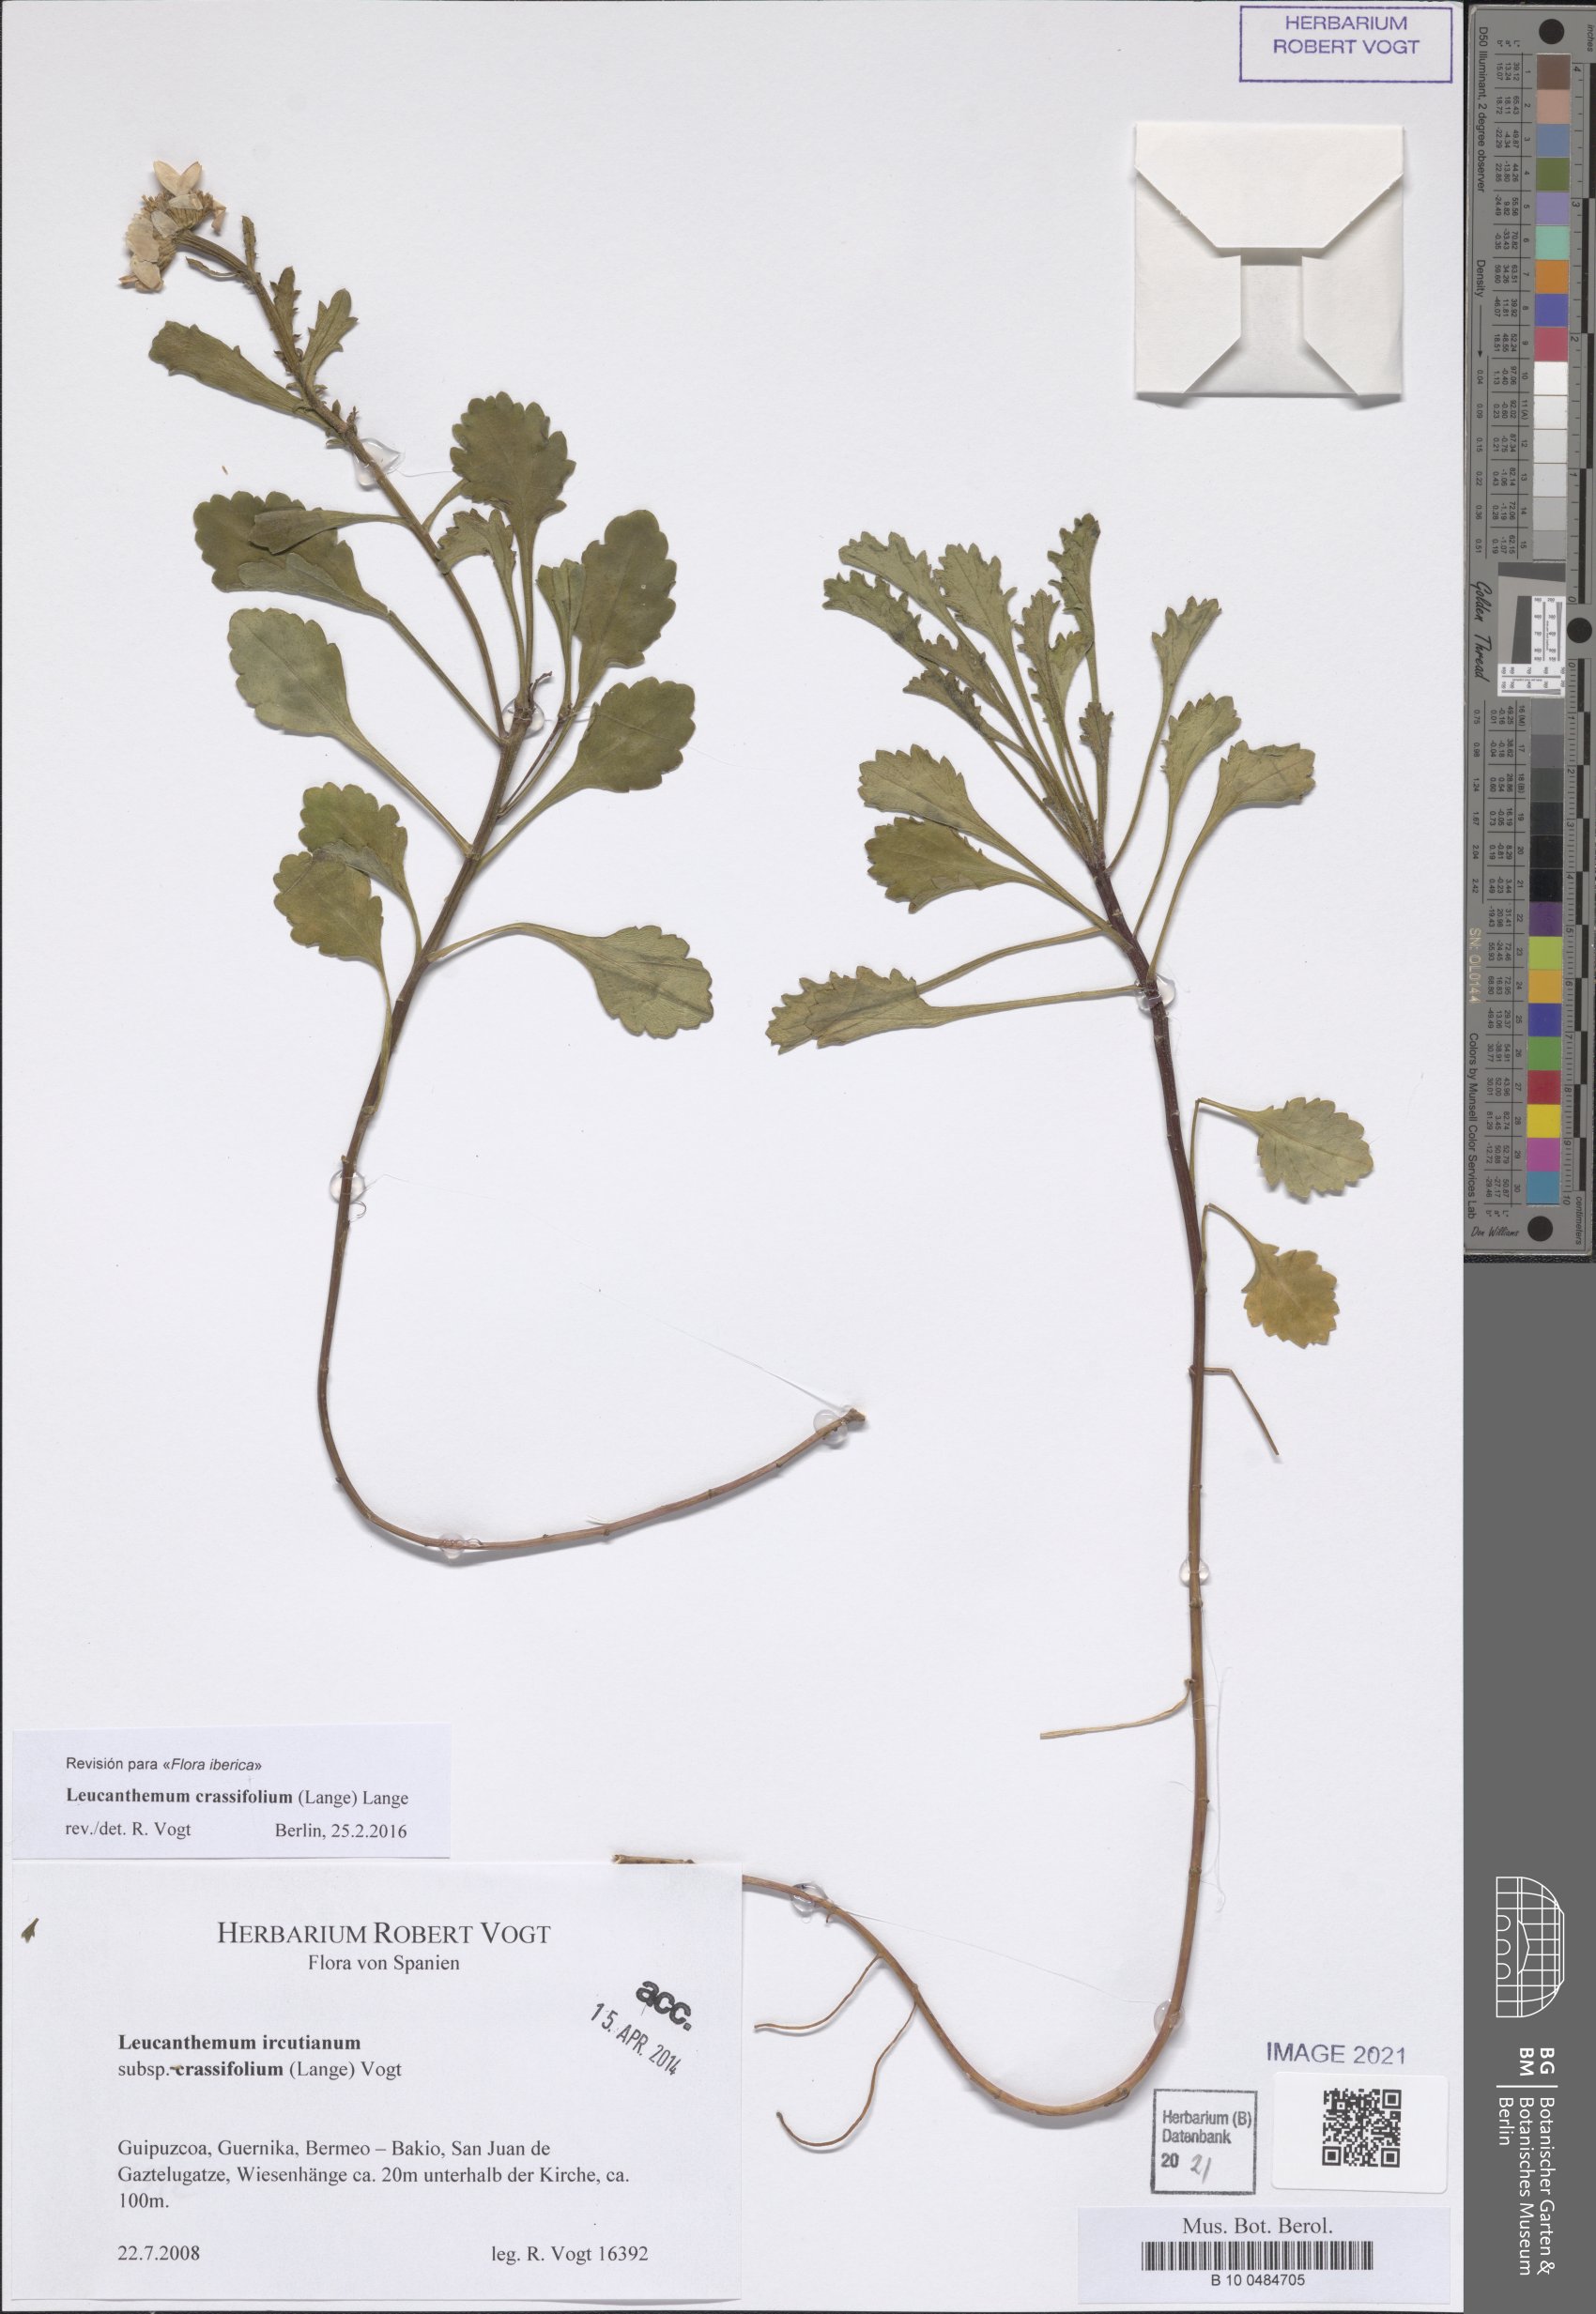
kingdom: Plantae
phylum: Tracheophyta
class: Magnoliopsida
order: Asterales
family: Asteraceae
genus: Leucanthemum
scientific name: Leucanthemum crassifolium
